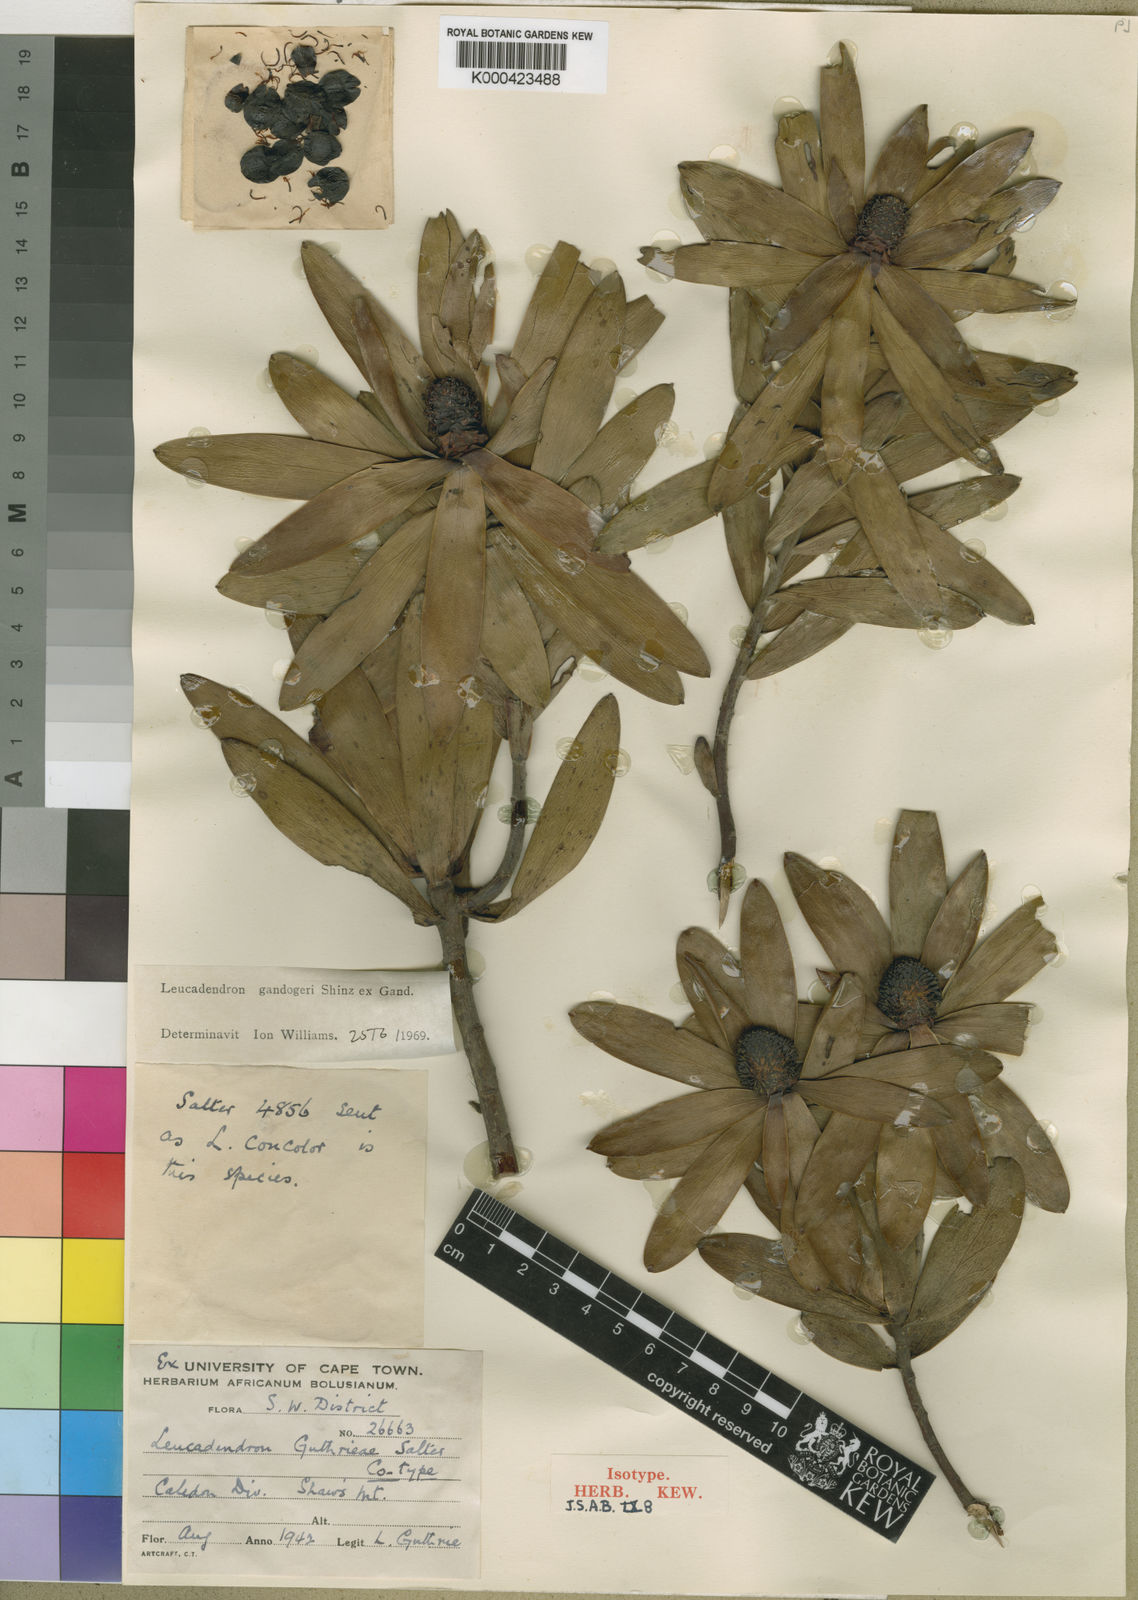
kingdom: Plantae
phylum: Tracheophyta
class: Magnoliopsida
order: Proteales
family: Proteaceae
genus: Leucadendron
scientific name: Leucadendron
